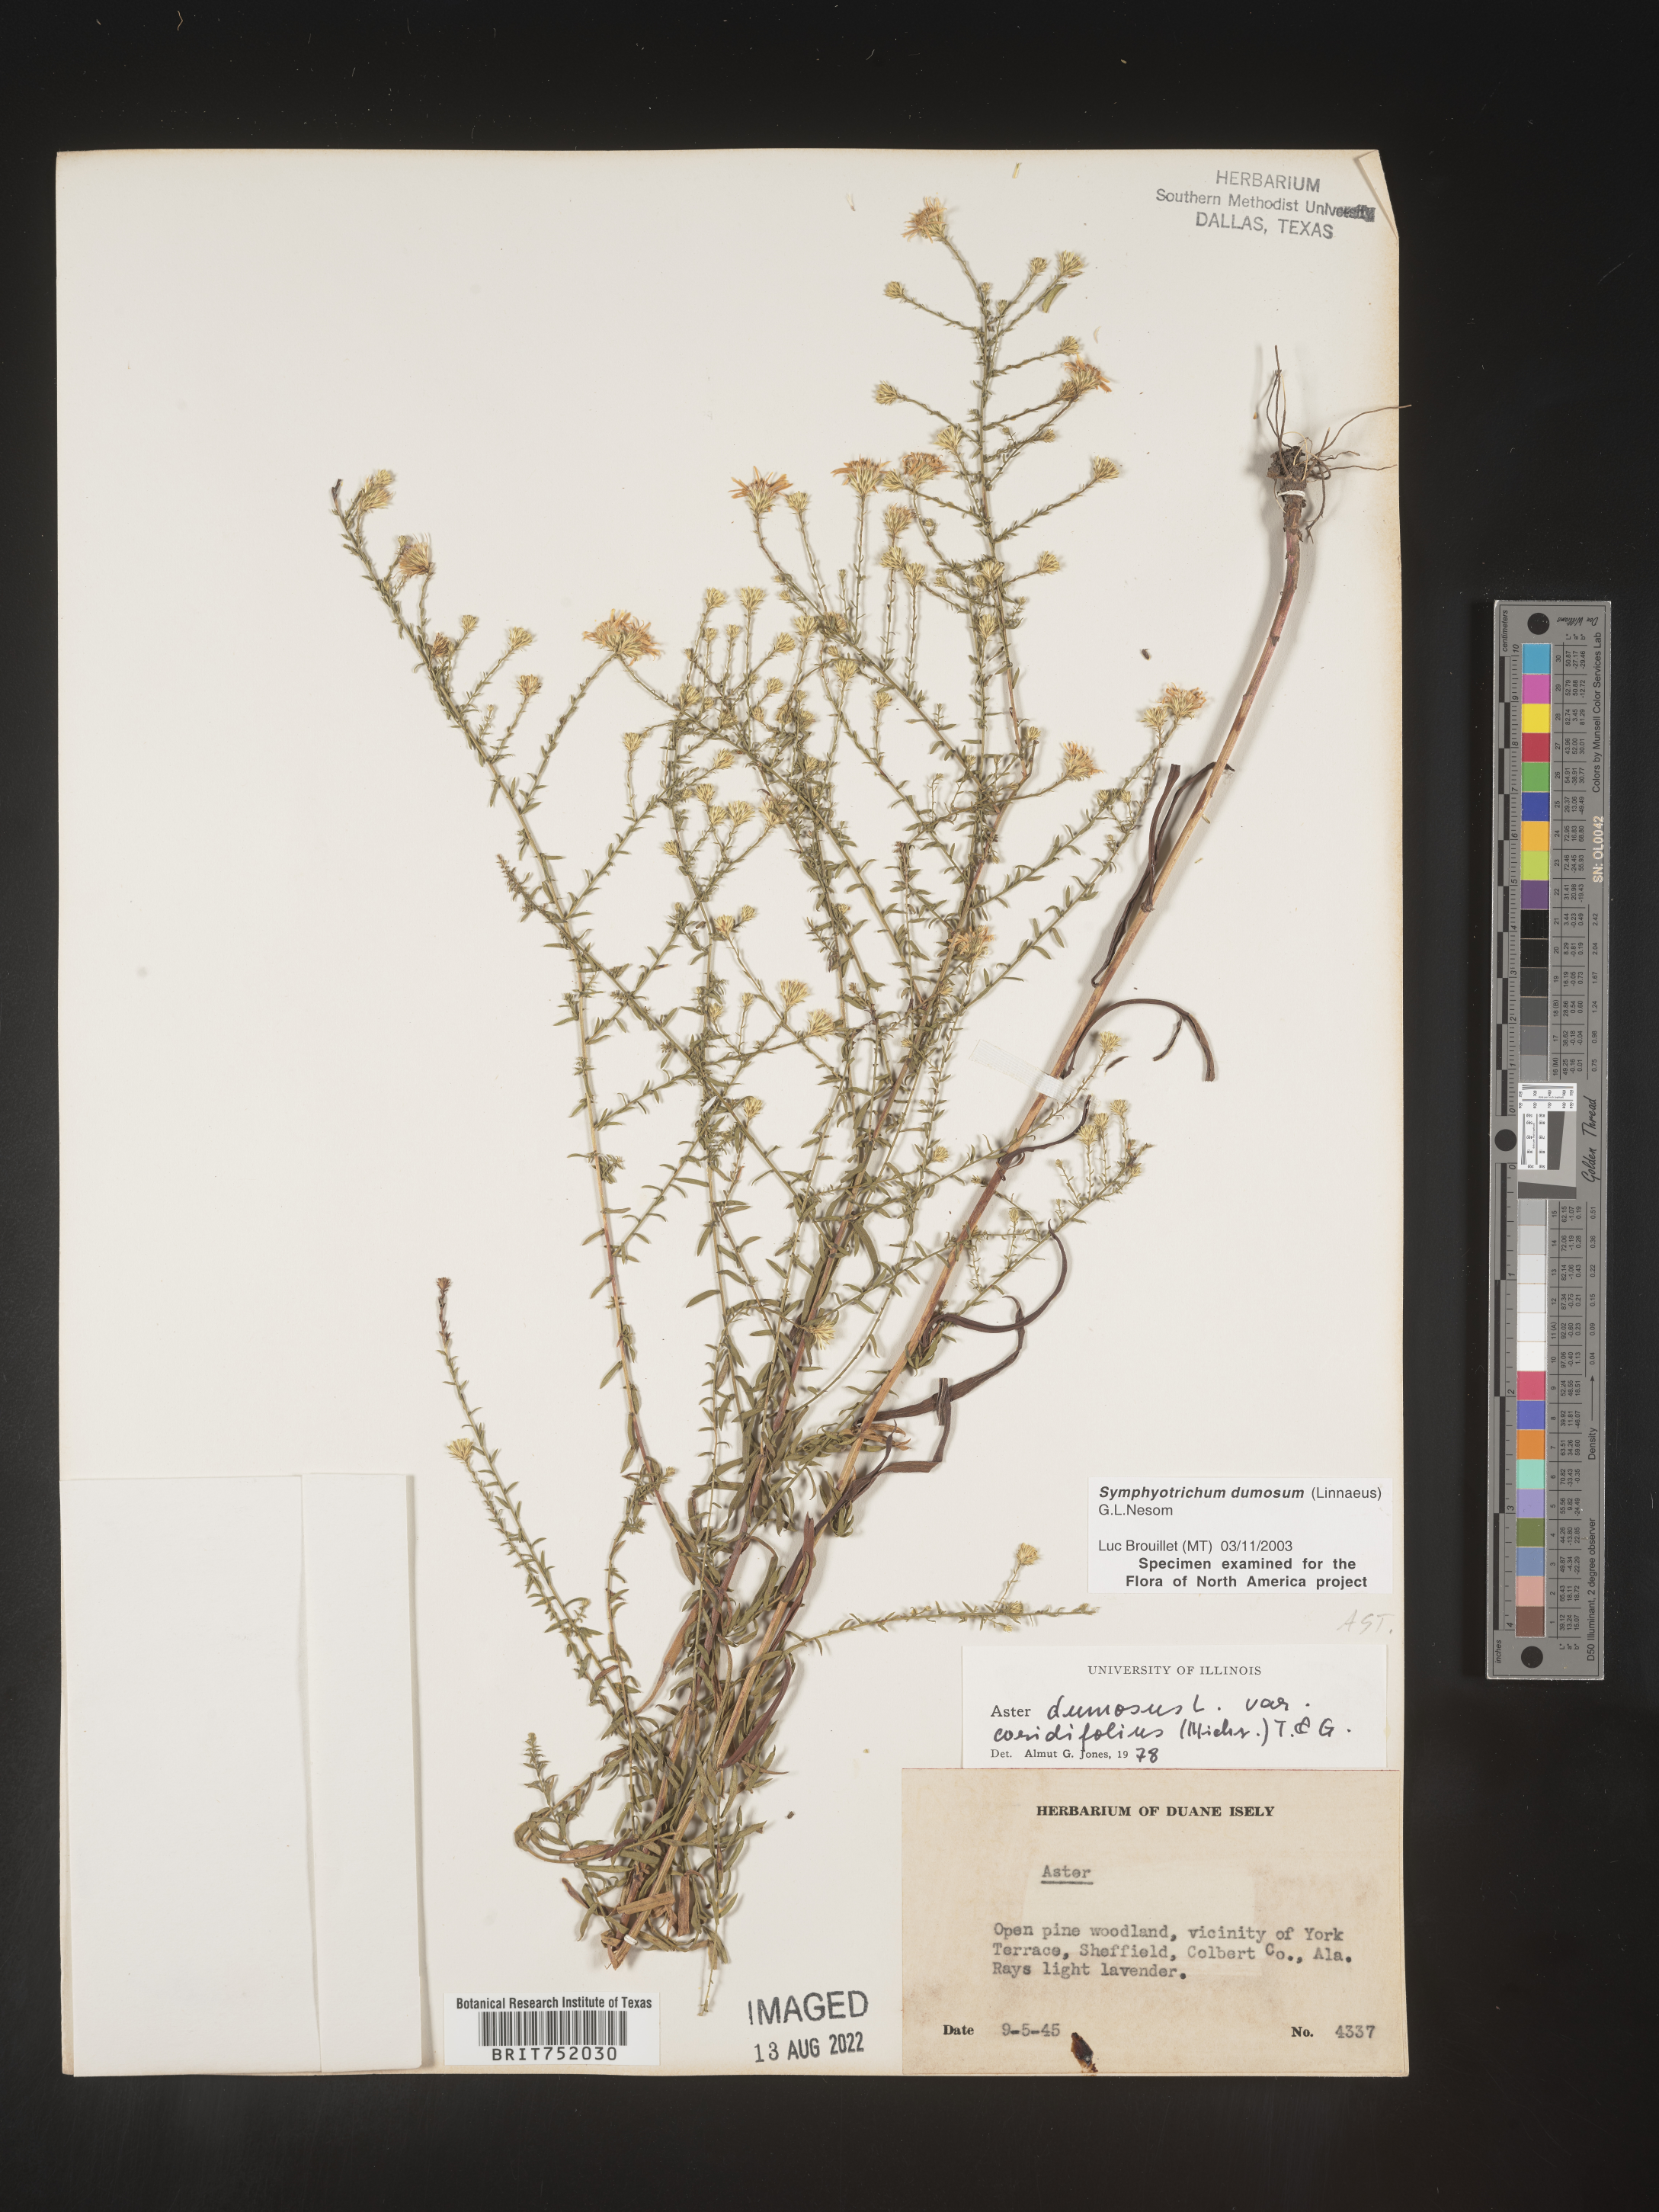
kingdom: Plantae
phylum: Tracheophyta
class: Magnoliopsida
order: Asterales
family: Asteraceae
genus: Symphyotrichum
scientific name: Symphyotrichum dumosum
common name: Bushy aster
